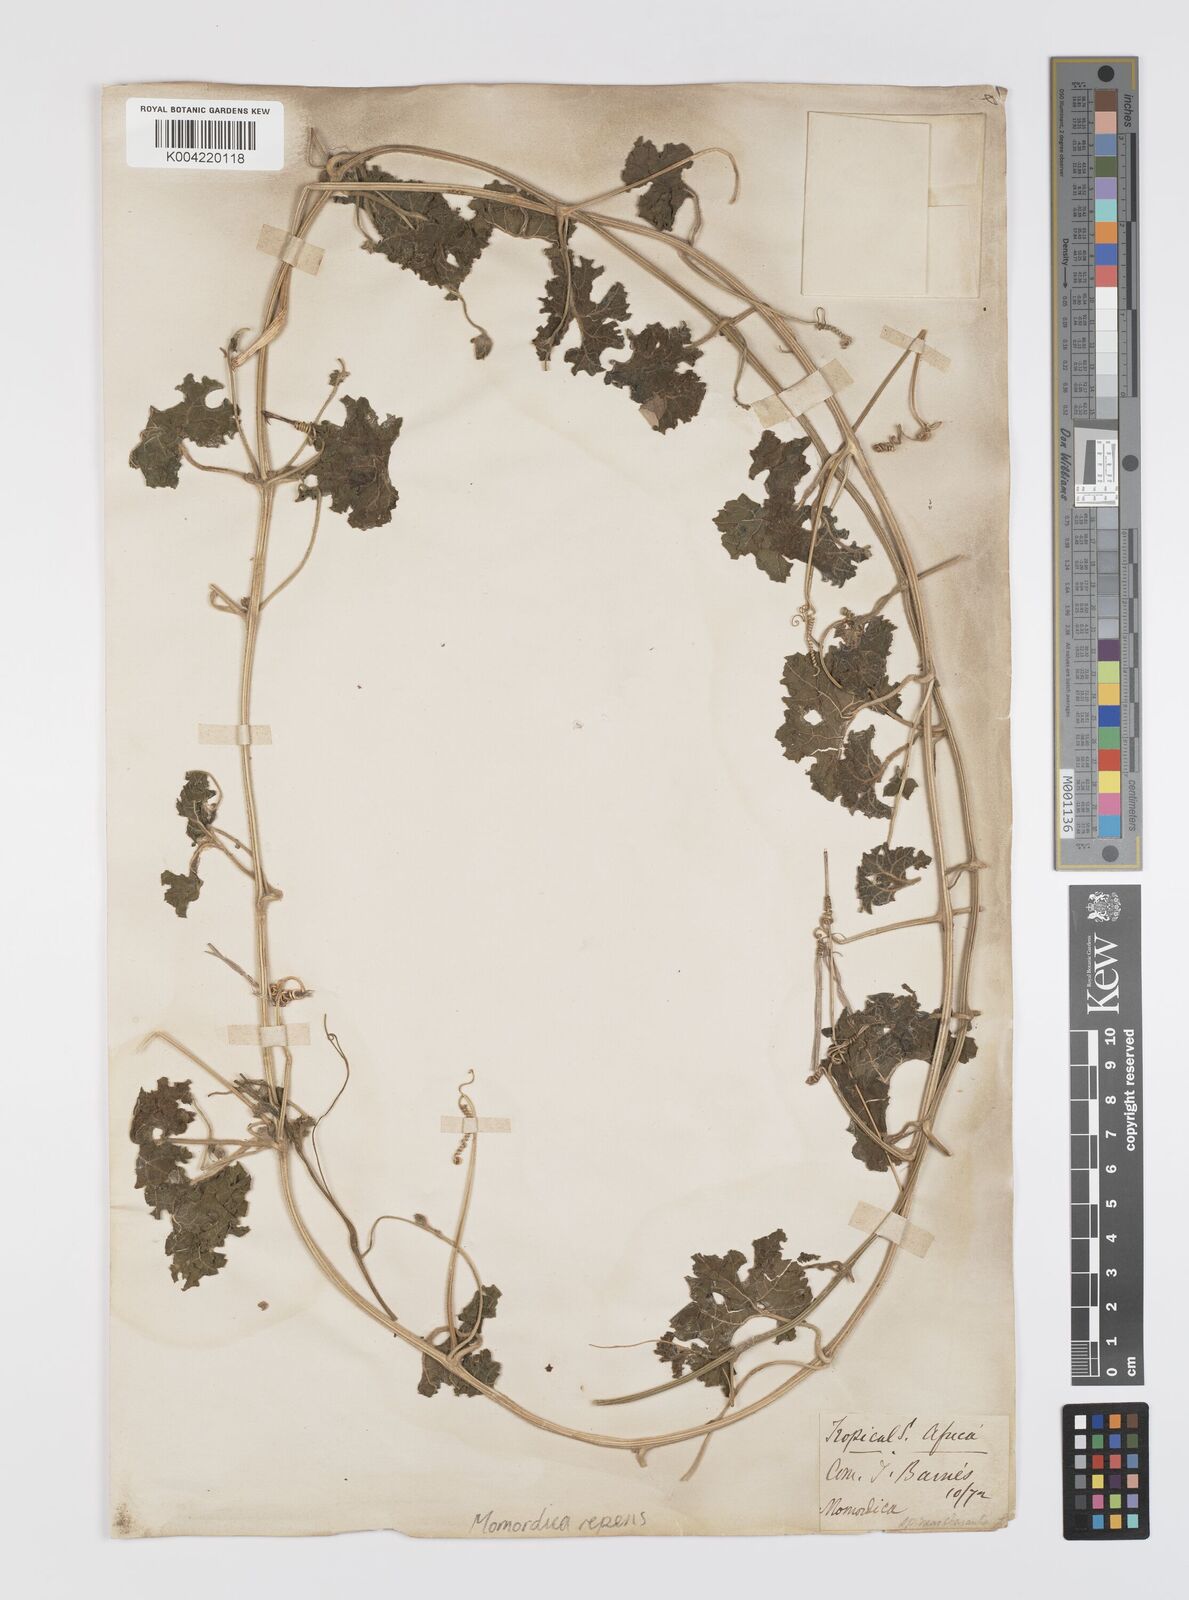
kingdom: Plantae
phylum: Tracheophyta
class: Magnoliopsida
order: Cucurbitales
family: Cucurbitaceae
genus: Momordica
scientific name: Momordica repens
